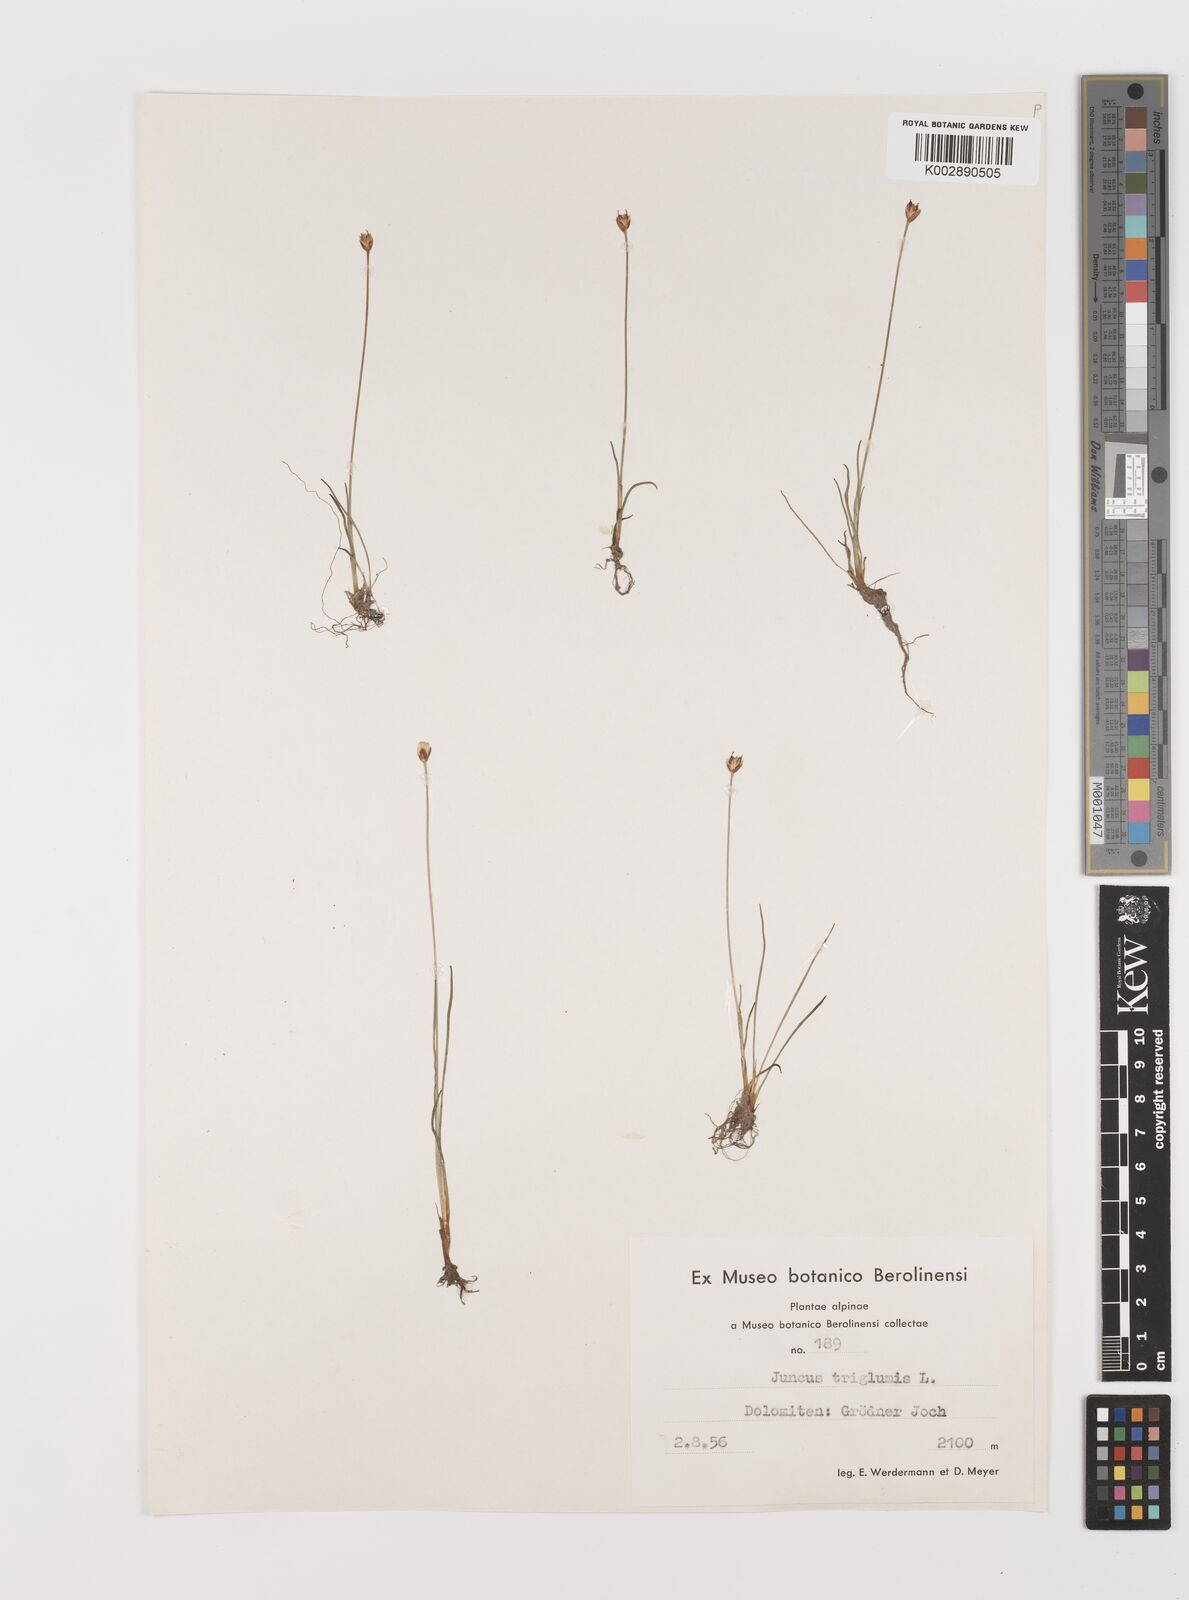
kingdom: Plantae
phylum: Tracheophyta
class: Liliopsida
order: Poales
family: Juncaceae
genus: Juncus
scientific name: Juncus triglumis
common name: Three-flowered rush
